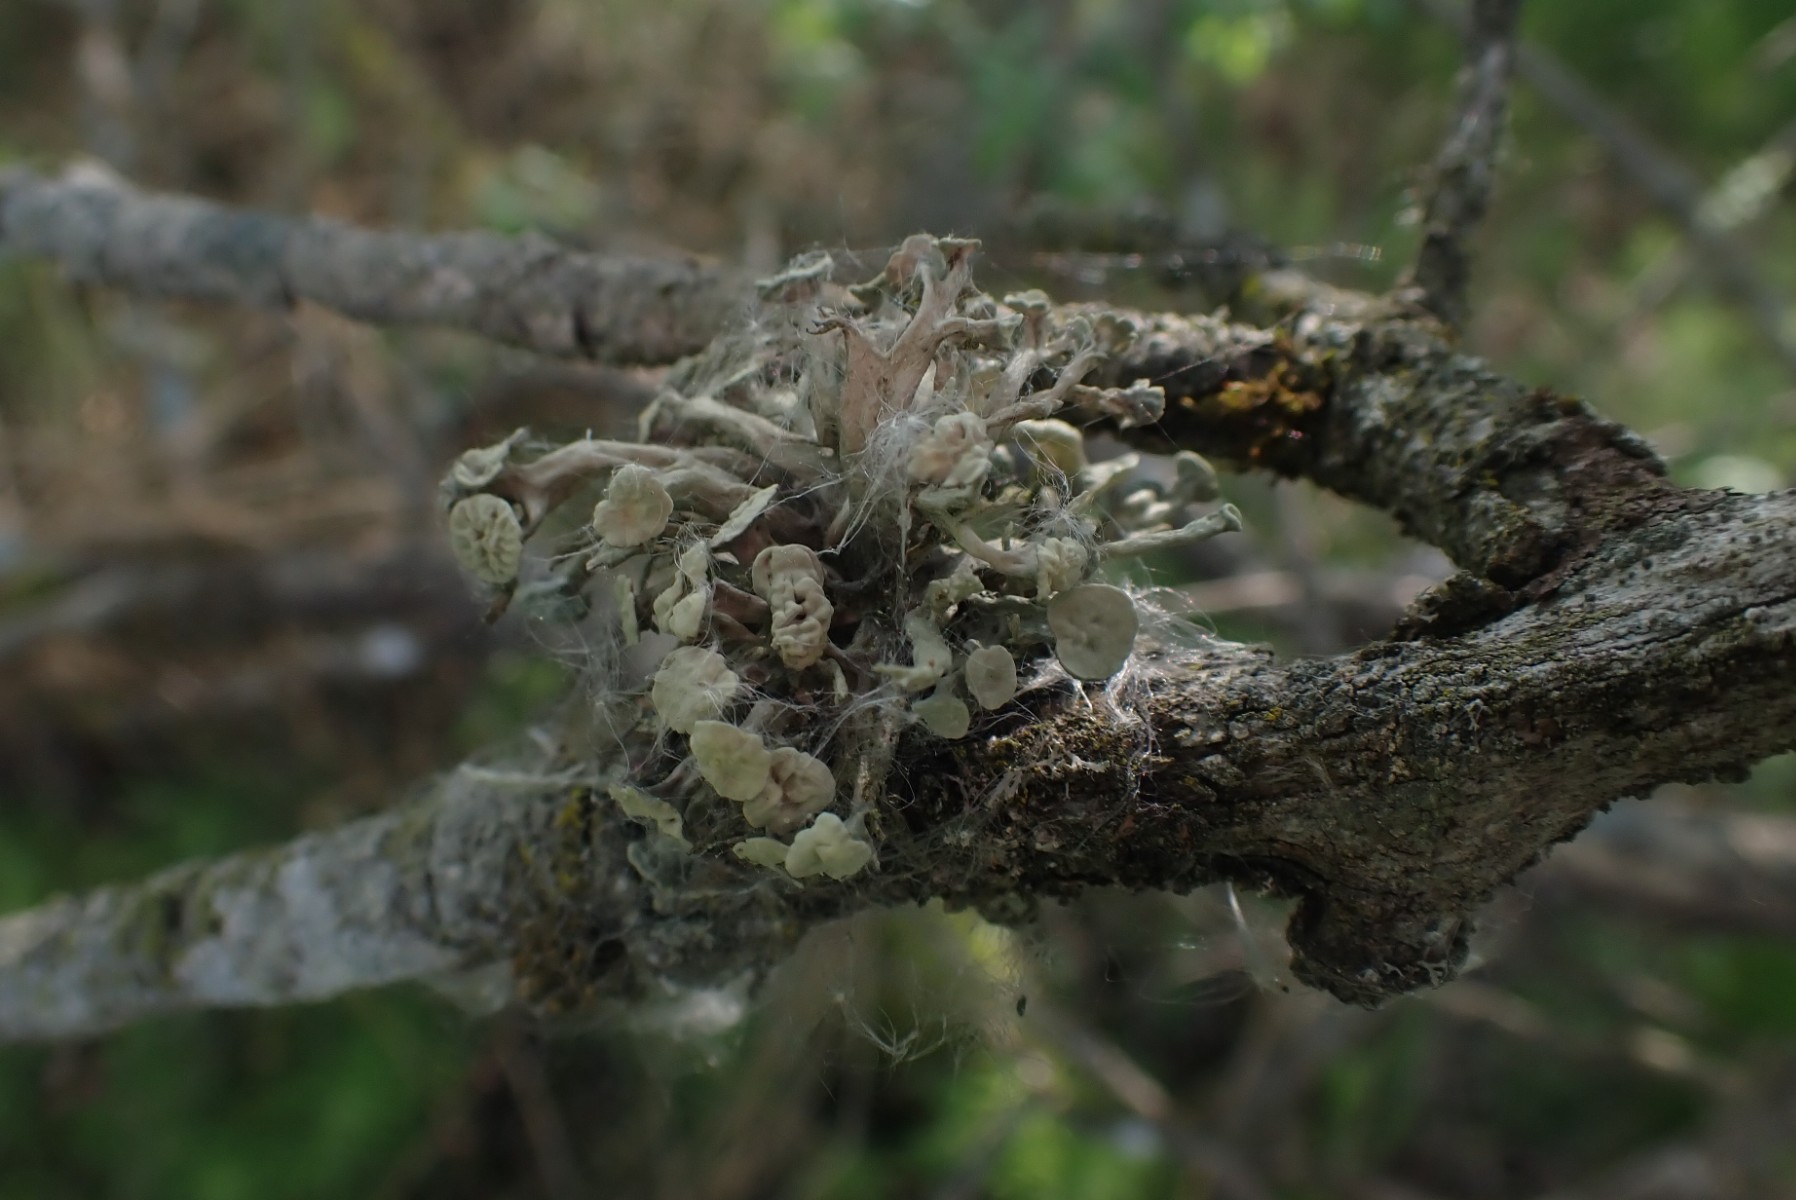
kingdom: Fungi
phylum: Ascomycota
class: Lecanoromycetes
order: Lecanorales
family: Ramalinaceae
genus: Ramalina
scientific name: Ramalina fastigiata
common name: tue-grenlav
